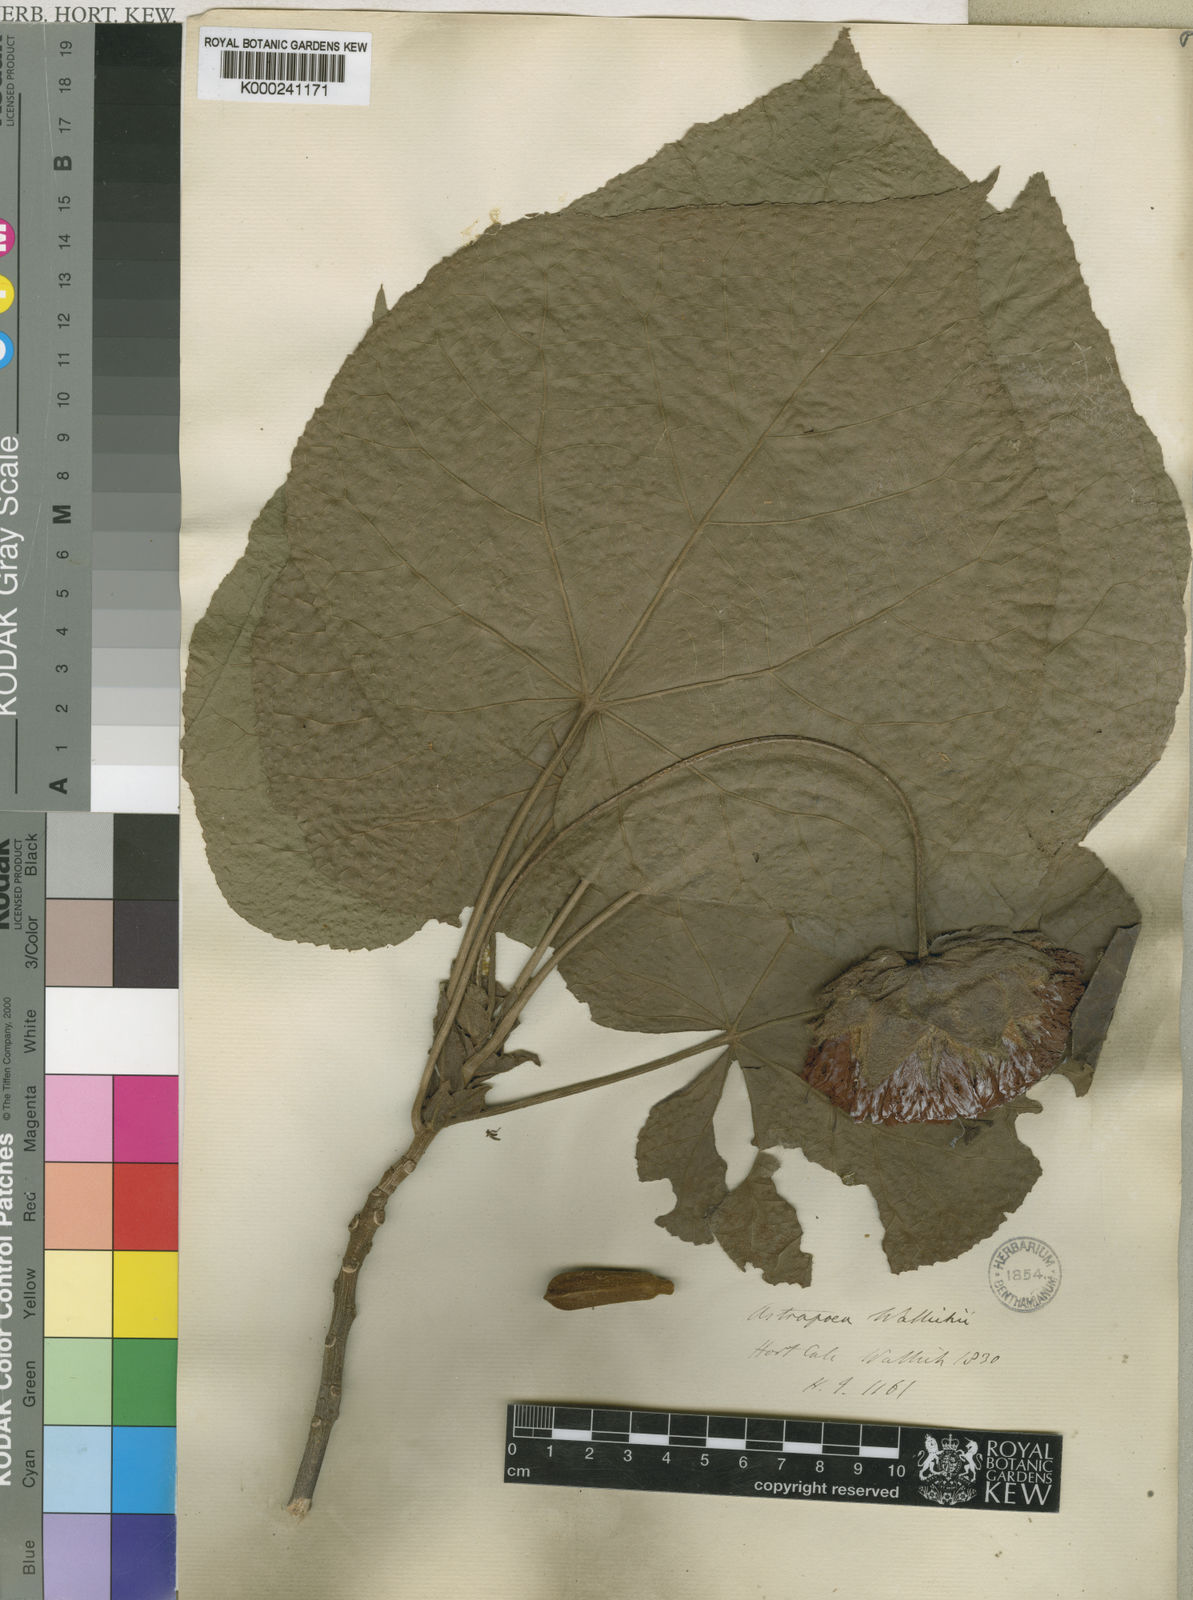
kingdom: Plantae
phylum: Tracheophyta
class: Magnoliopsida
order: Malvales
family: Malvaceae
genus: Dombeya
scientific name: Dombeya wallichii
